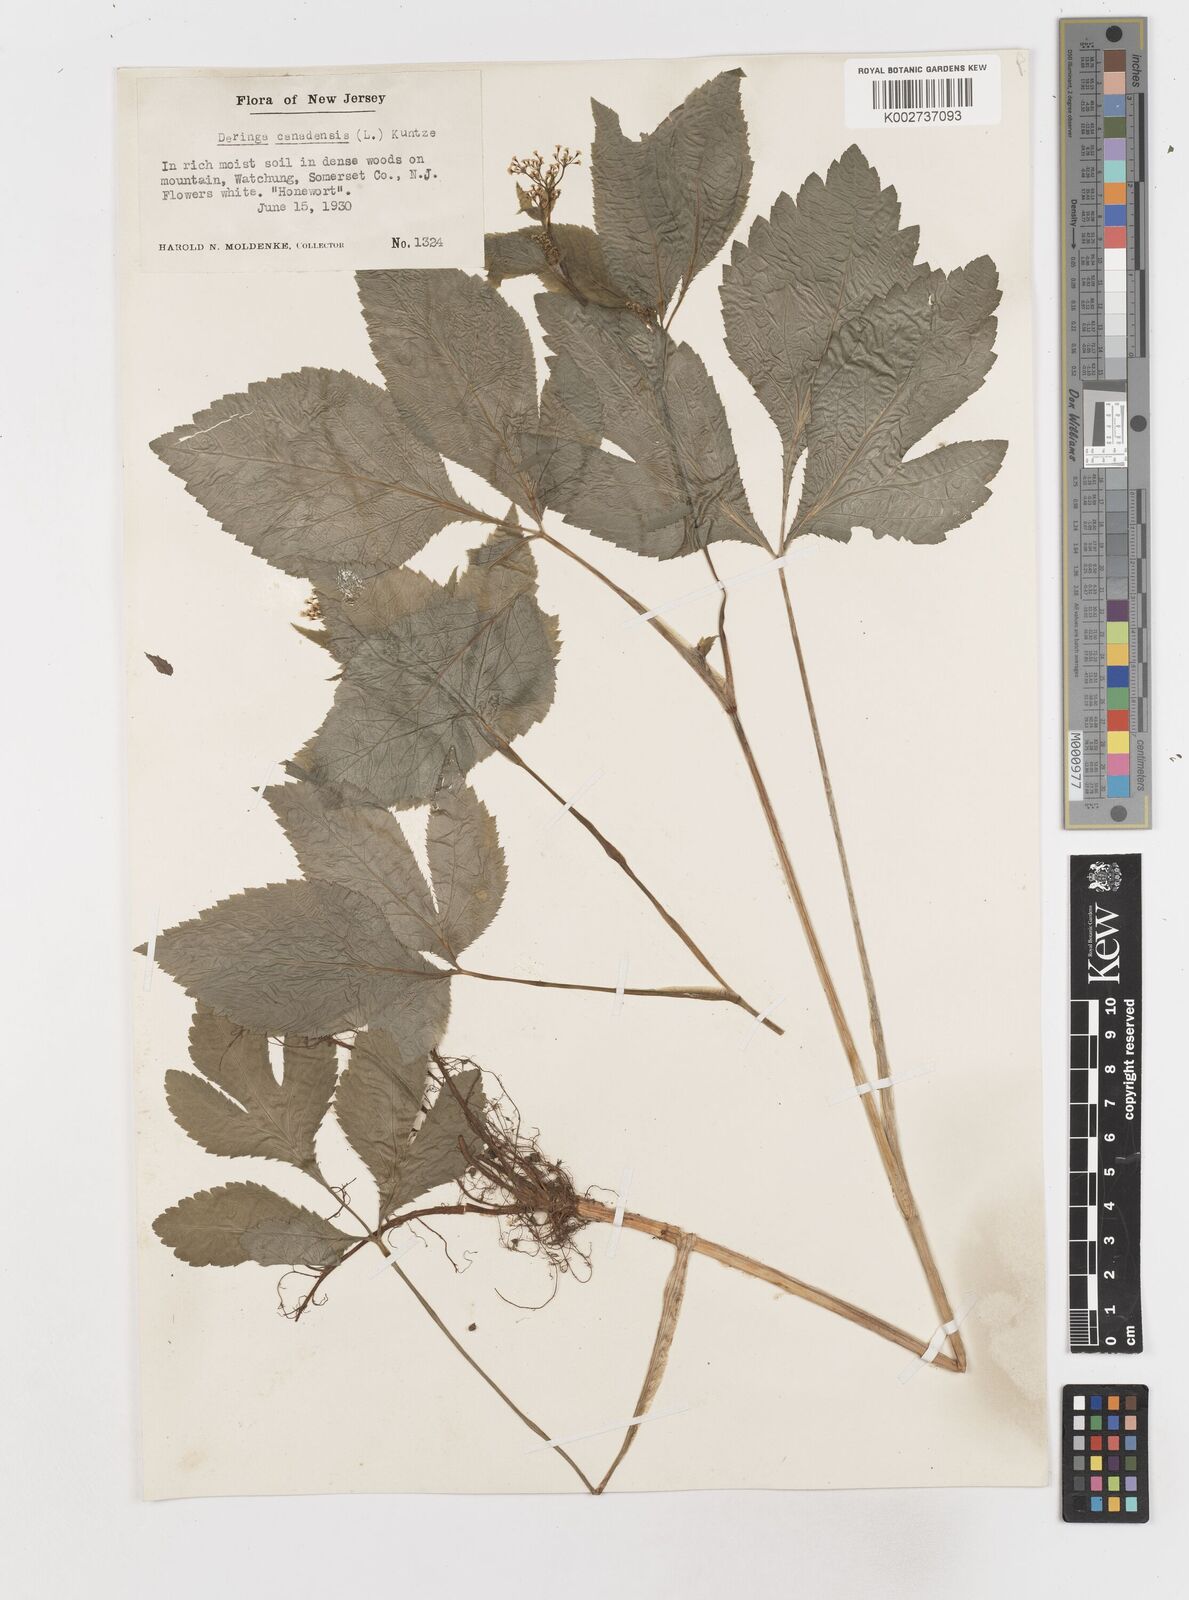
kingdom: Plantae
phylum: Tracheophyta
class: Magnoliopsida
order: Apiales
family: Apiaceae
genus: Cryptotaenia
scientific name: Cryptotaenia canadensis
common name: Honewort
